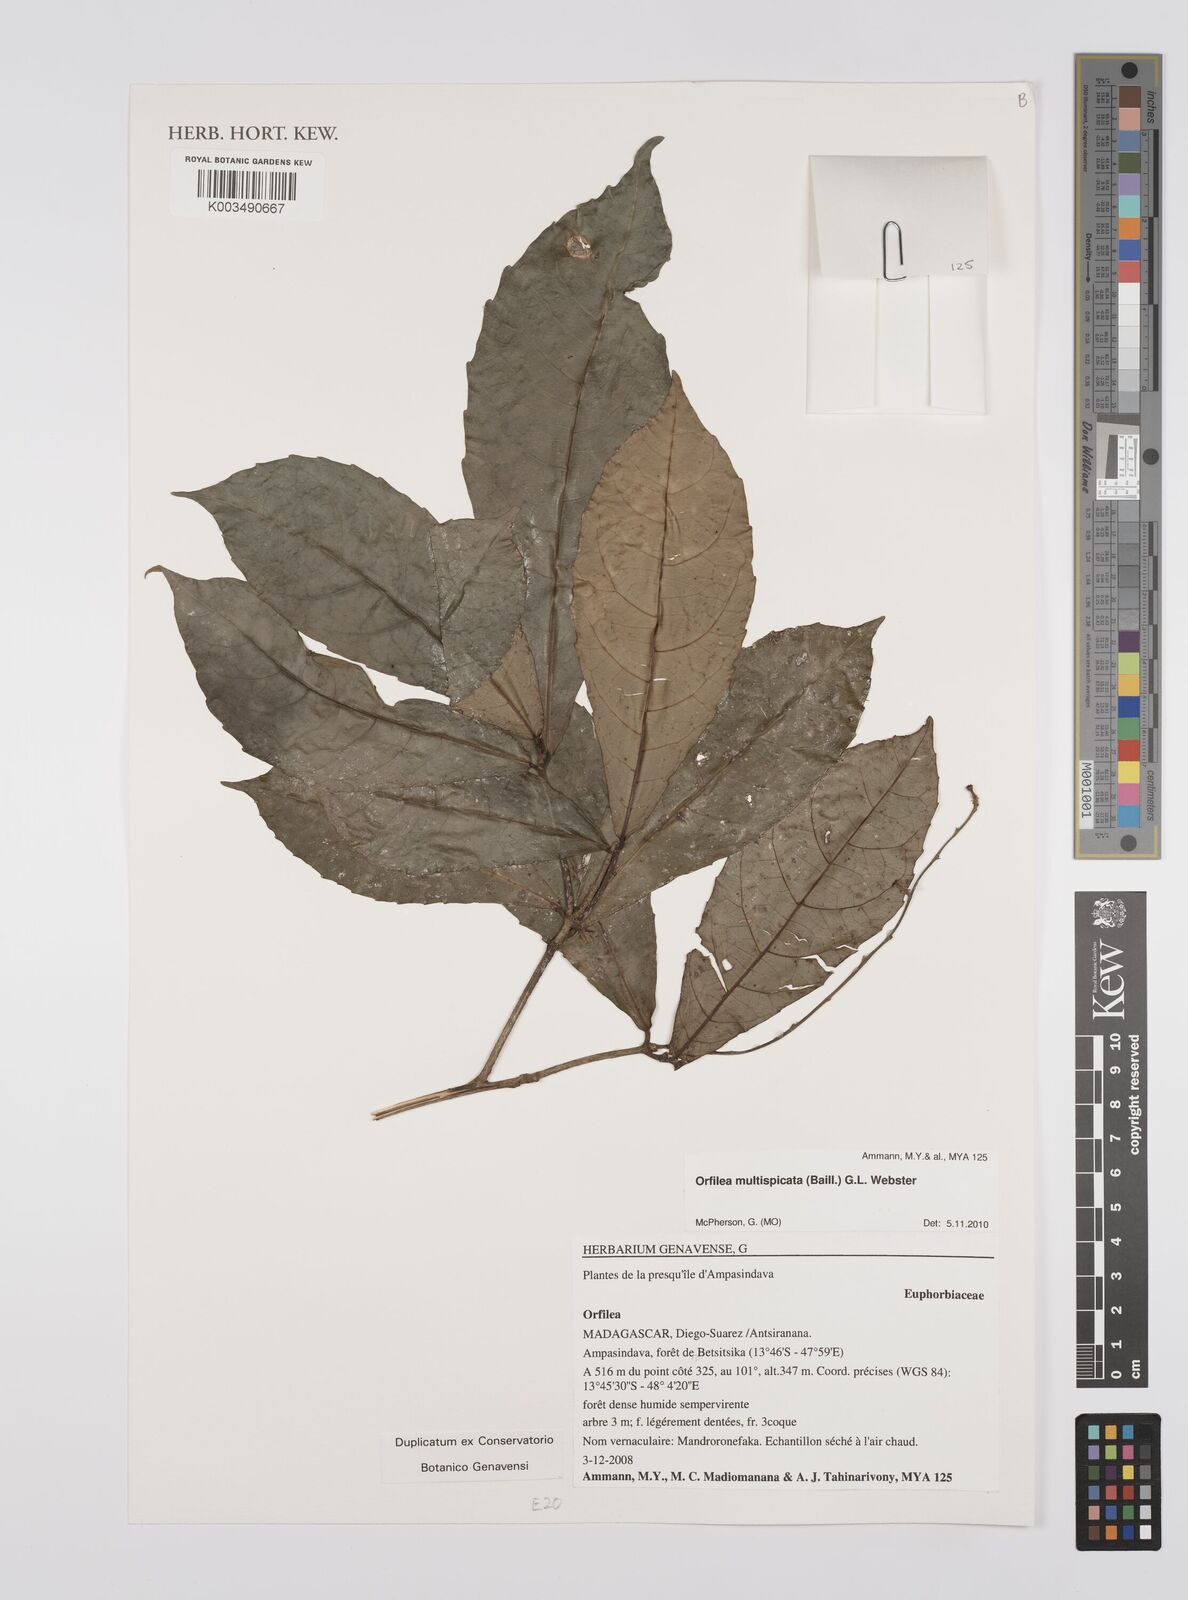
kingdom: Plantae
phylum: Tracheophyta
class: Magnoliopsida
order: Malpighiales
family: Euphorbiaceae
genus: Orfilea
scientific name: Orfilea multispicata
